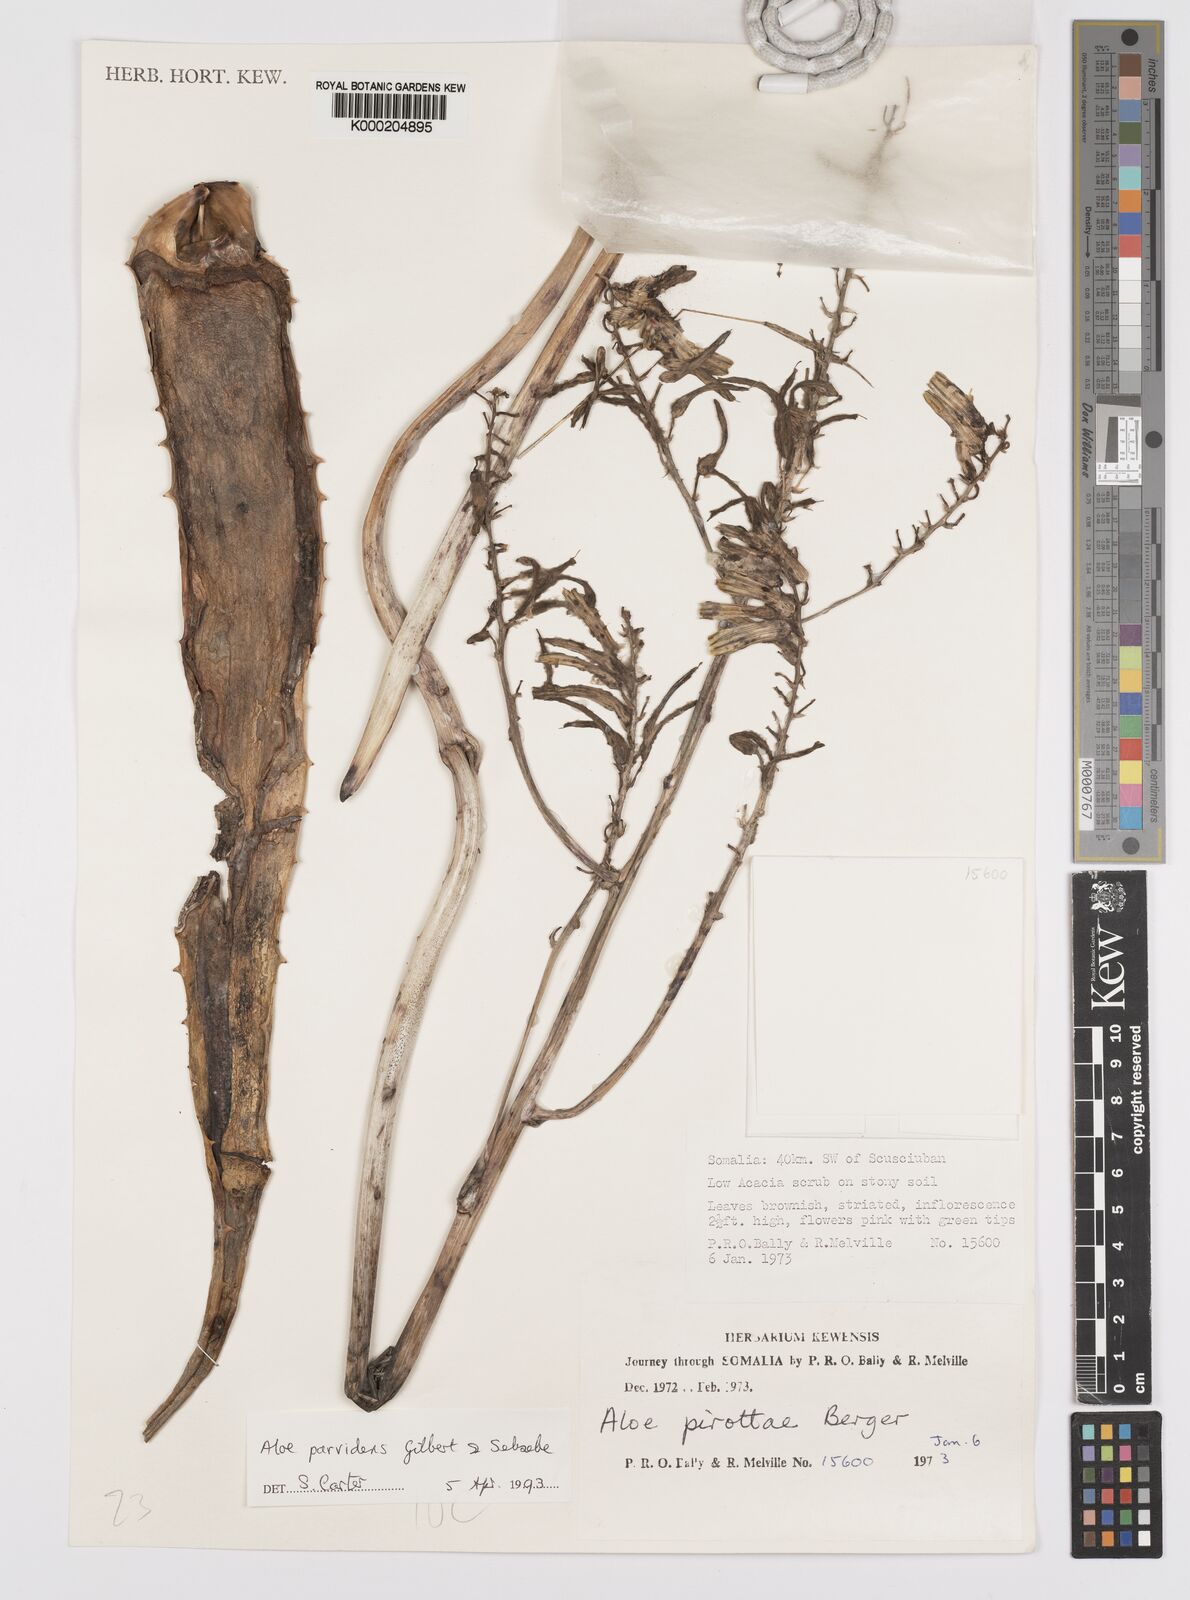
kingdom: Plantae
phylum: Tracheophyta
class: Liliopsida
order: Asparagales
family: Asphodelaceae
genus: Aloe
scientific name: Aloe parvidens
